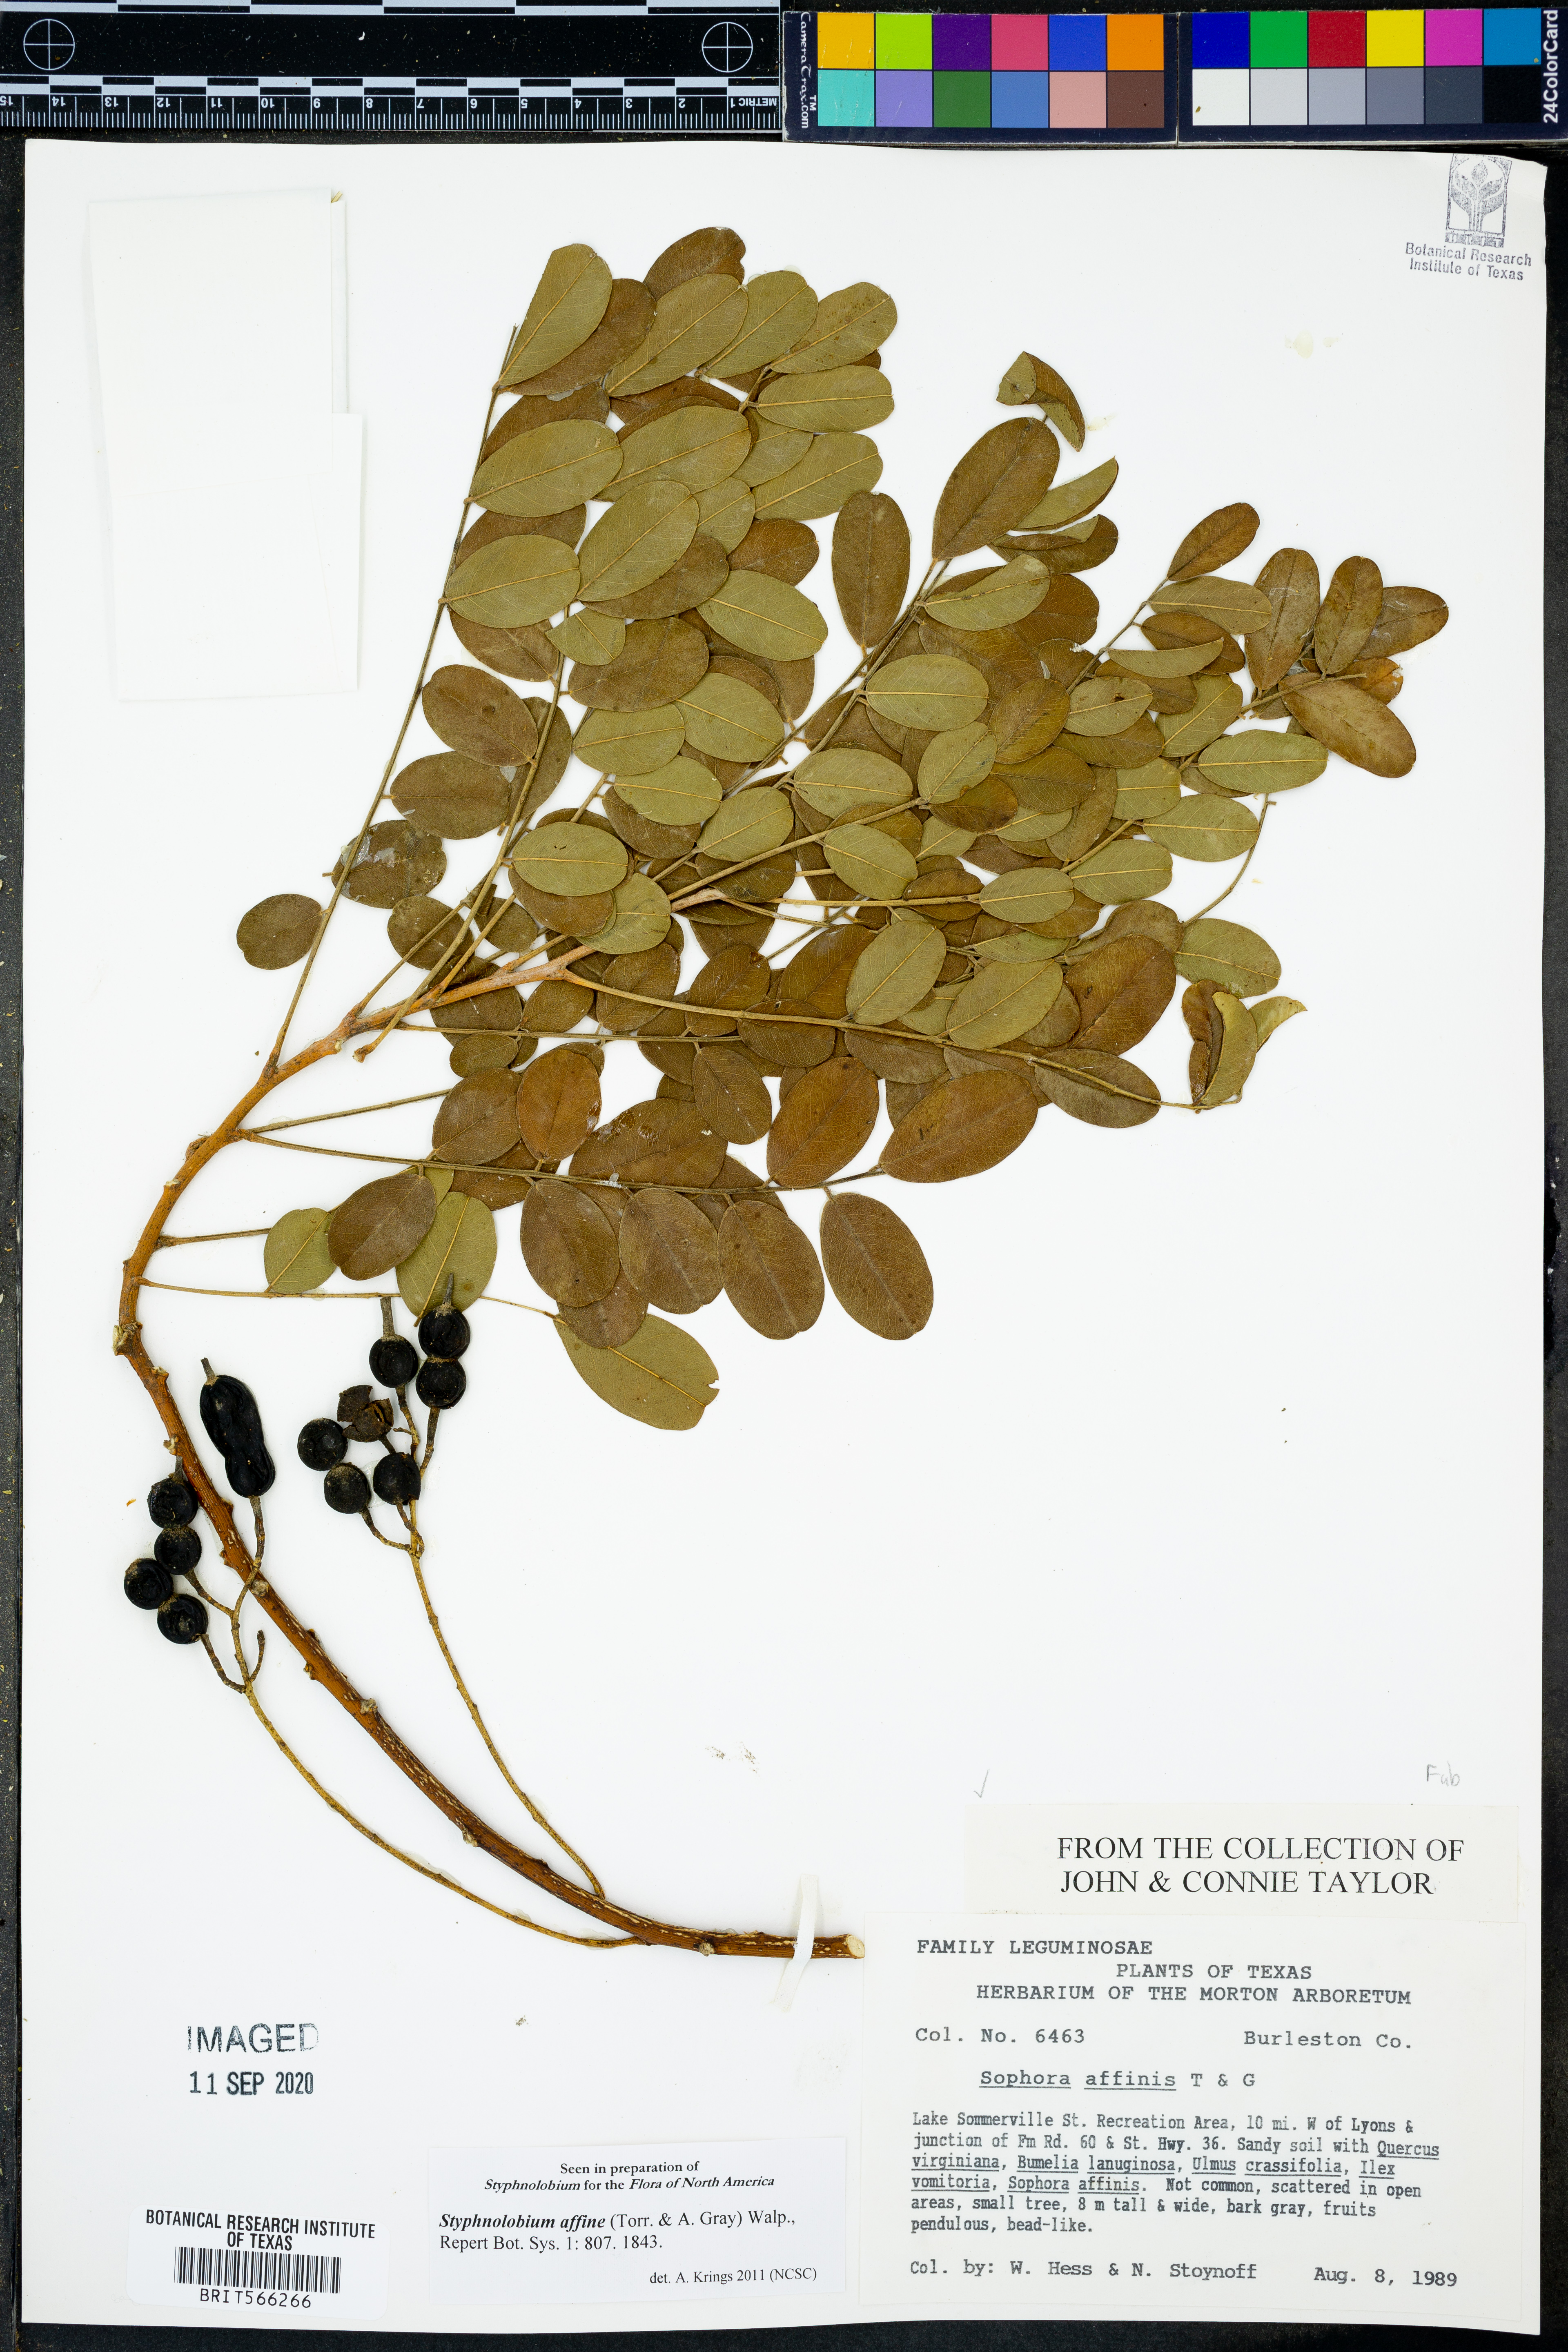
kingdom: Plantae
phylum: Tracheophyta
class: Magnoliopsida
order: Fabales
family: Fabaceae
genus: Styphnolobium
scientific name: Styphnolobium affine
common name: Texas sophora
